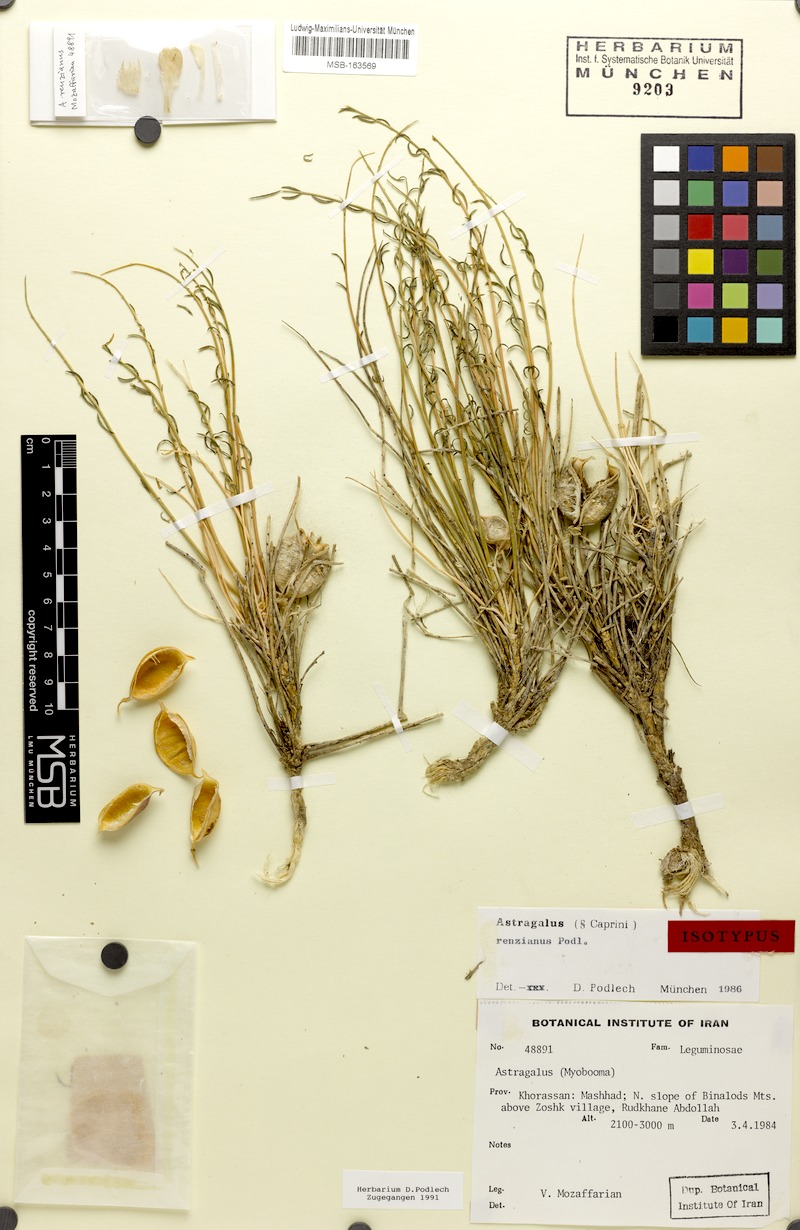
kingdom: Plantae
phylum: Tracheophyta
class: Magnoliopsida
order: Fabales
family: Fabaceae
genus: Astragalus
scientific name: Astragalus renzianus
